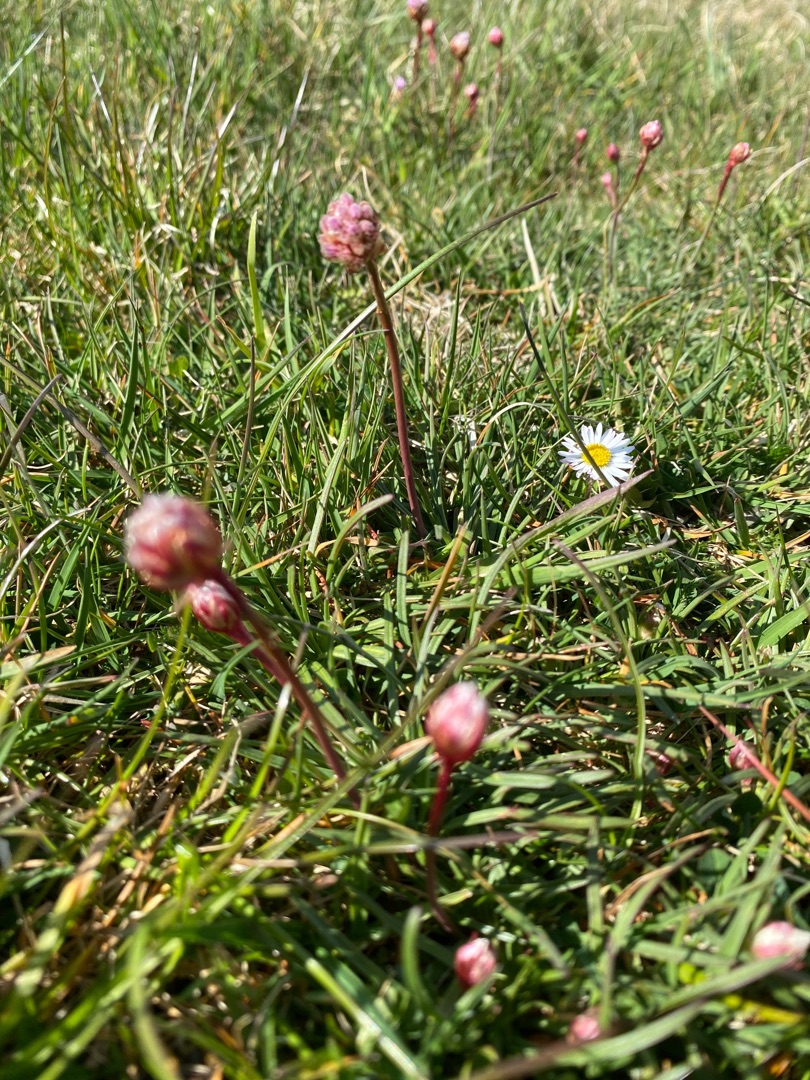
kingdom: Plantae
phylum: Tracheophyta
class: Magnoliopsida
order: Caryophyllales
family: Plumbaginaceae
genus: Armeria
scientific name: Armeria maritima
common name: Engelskgræs
